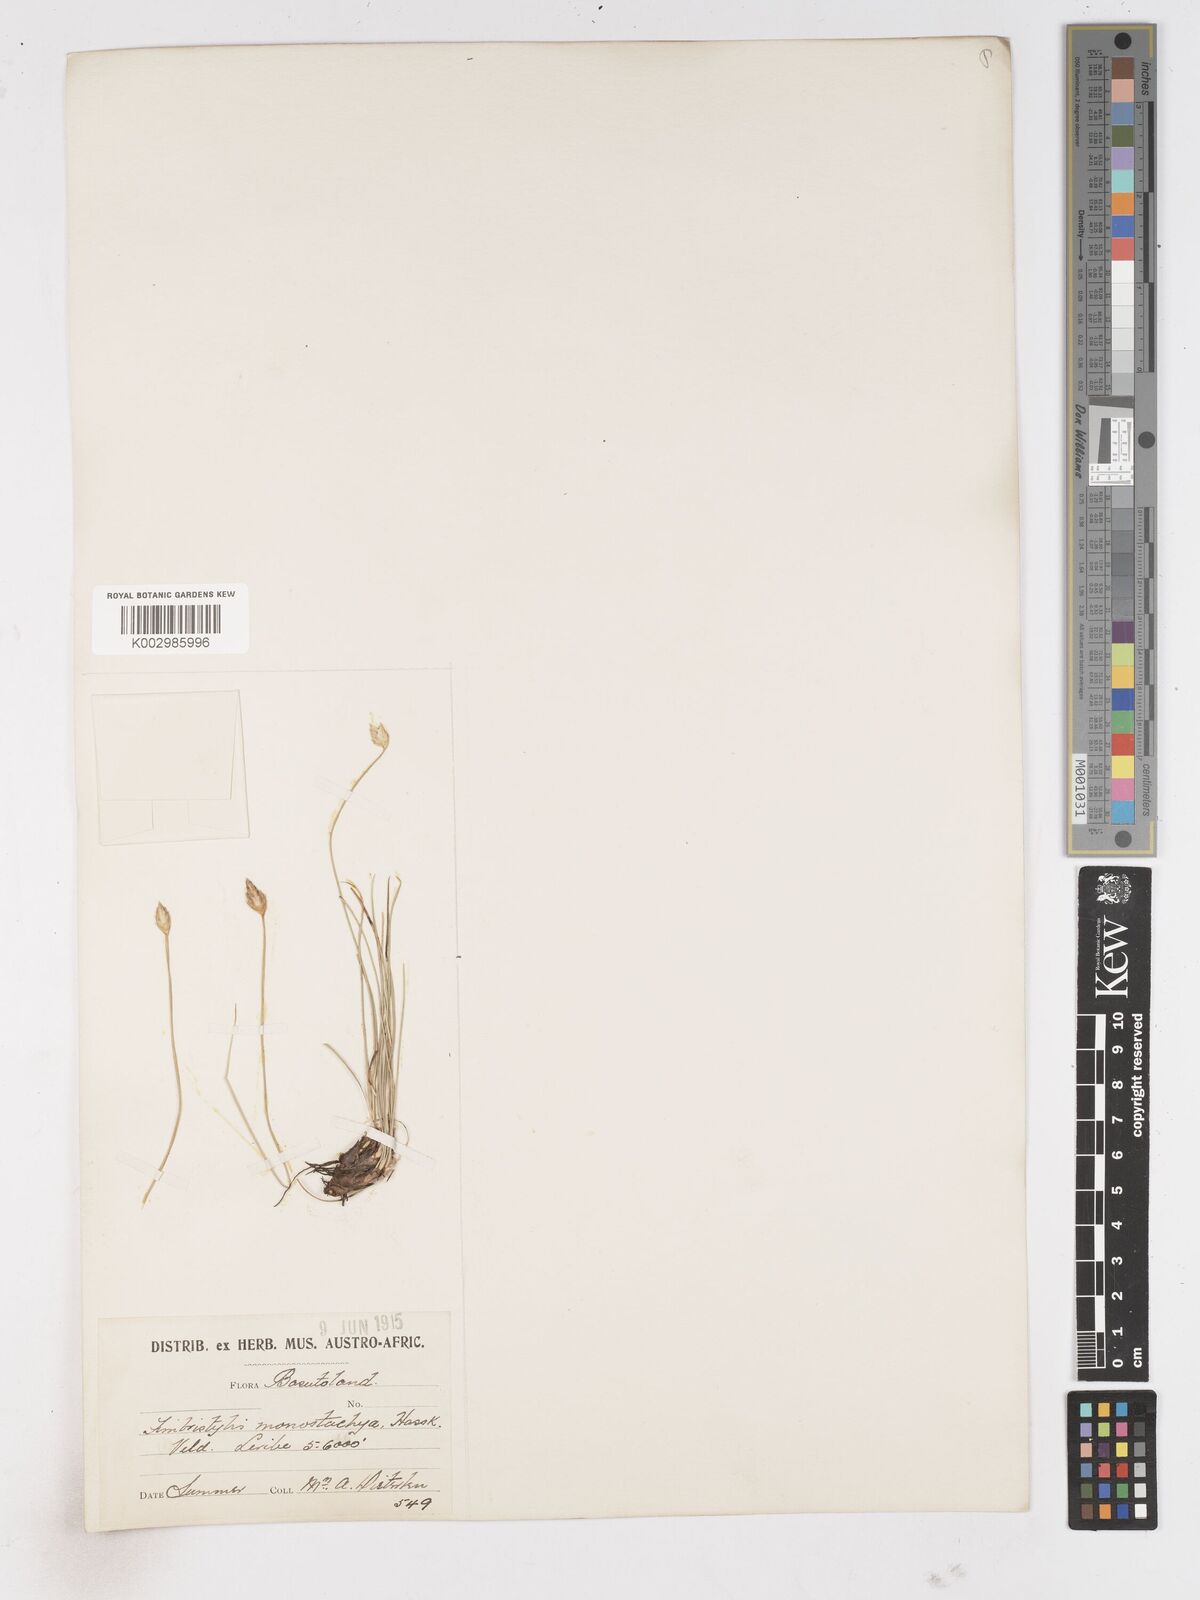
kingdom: Plantae
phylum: Tracheophyta
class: Liliopsida
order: Poales
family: Cyperaceae
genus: Abildgaardia
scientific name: Abildgaardia ovata
